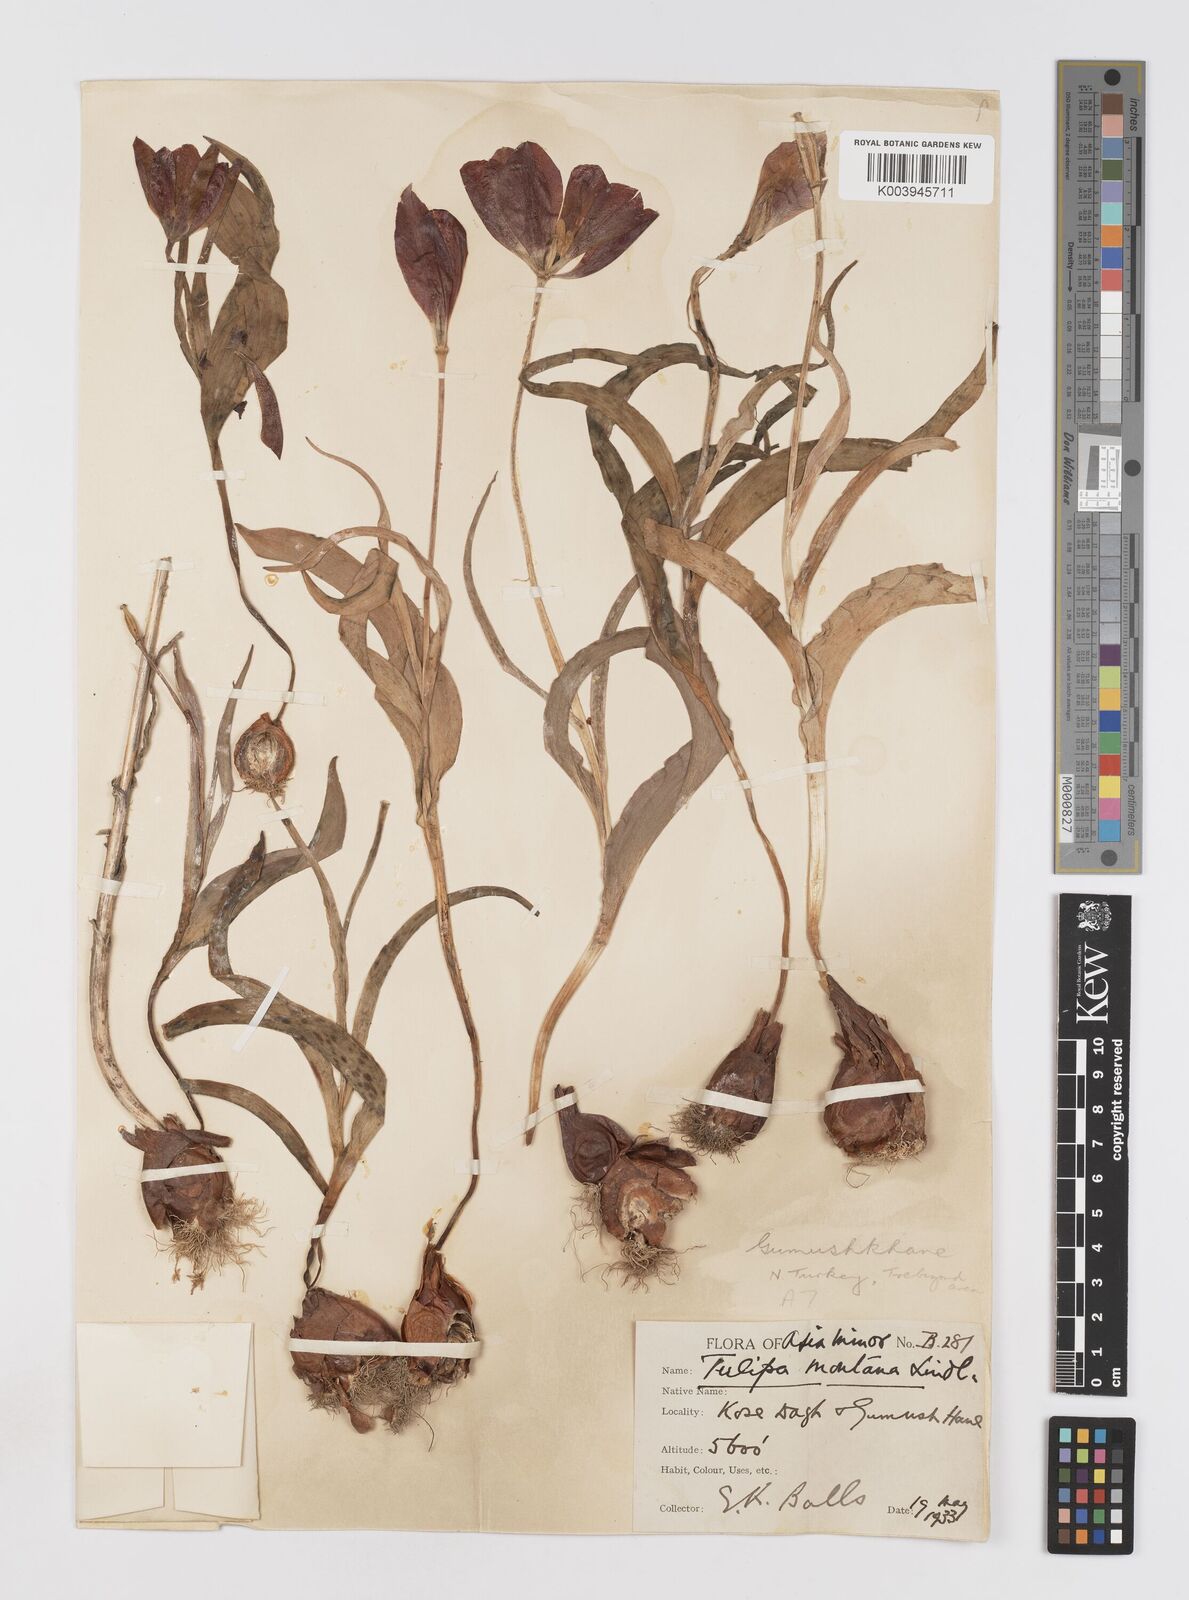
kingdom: Plantae
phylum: Tracheophyta
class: Liliopsida
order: Liliales
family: Liliaceae
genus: Tulipa
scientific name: Tulipa armena
